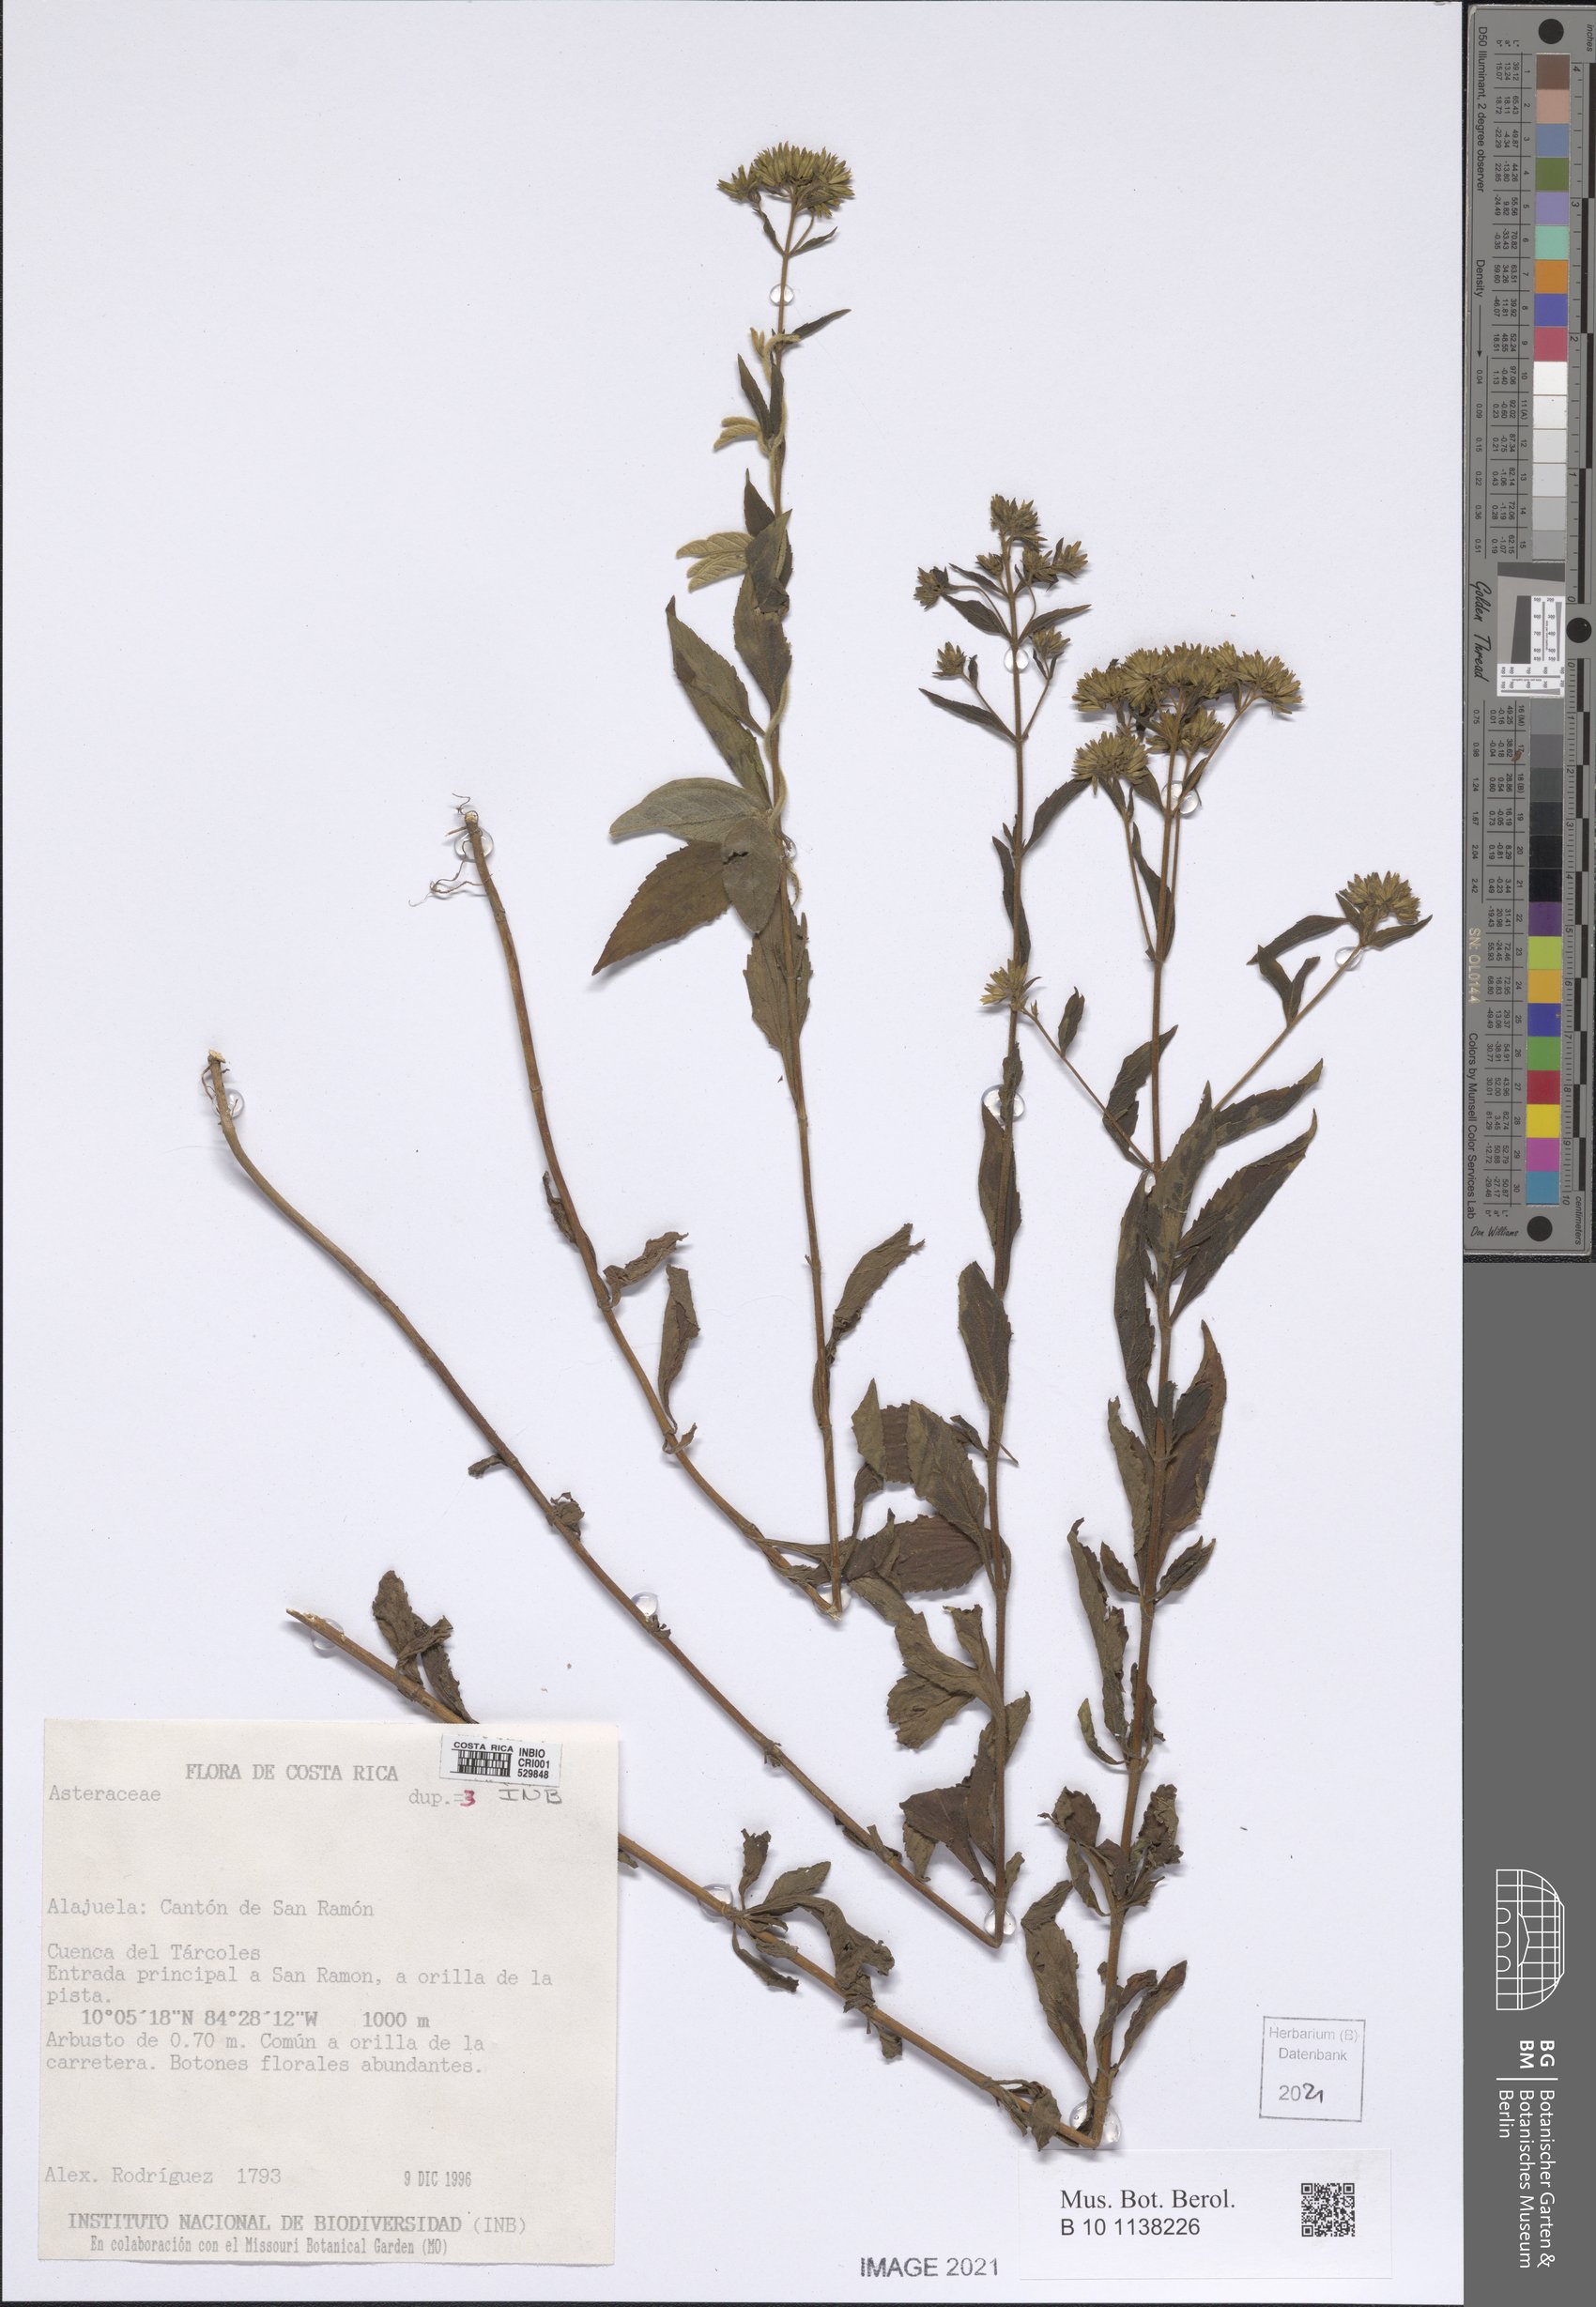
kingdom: Plantae
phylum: Tracheophyta
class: Magnoliopsida
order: Asterales
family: Asteraceae
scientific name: Asteraceae
